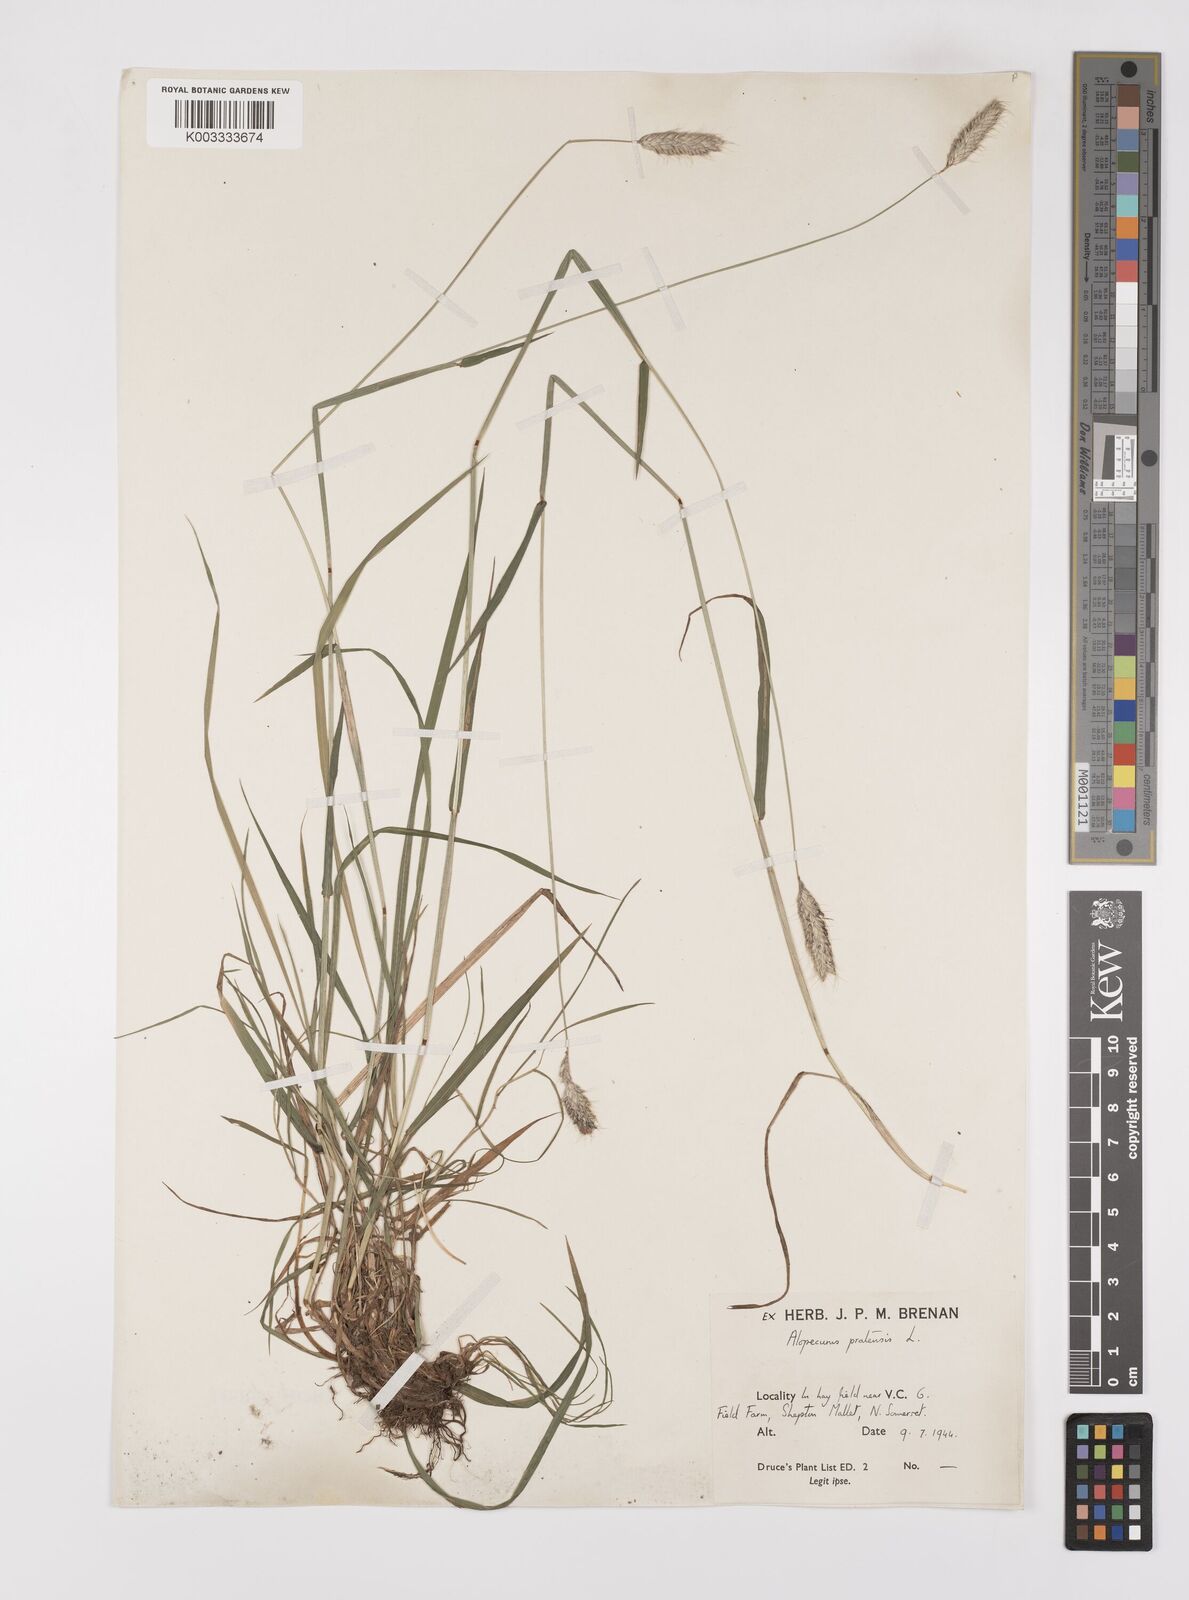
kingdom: Plantae
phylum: Tracheophyta
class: Liliopsida
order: Poales
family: Poaceae
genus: Alopecurus
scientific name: Alopecurus pratensis
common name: Meadow foxtail
